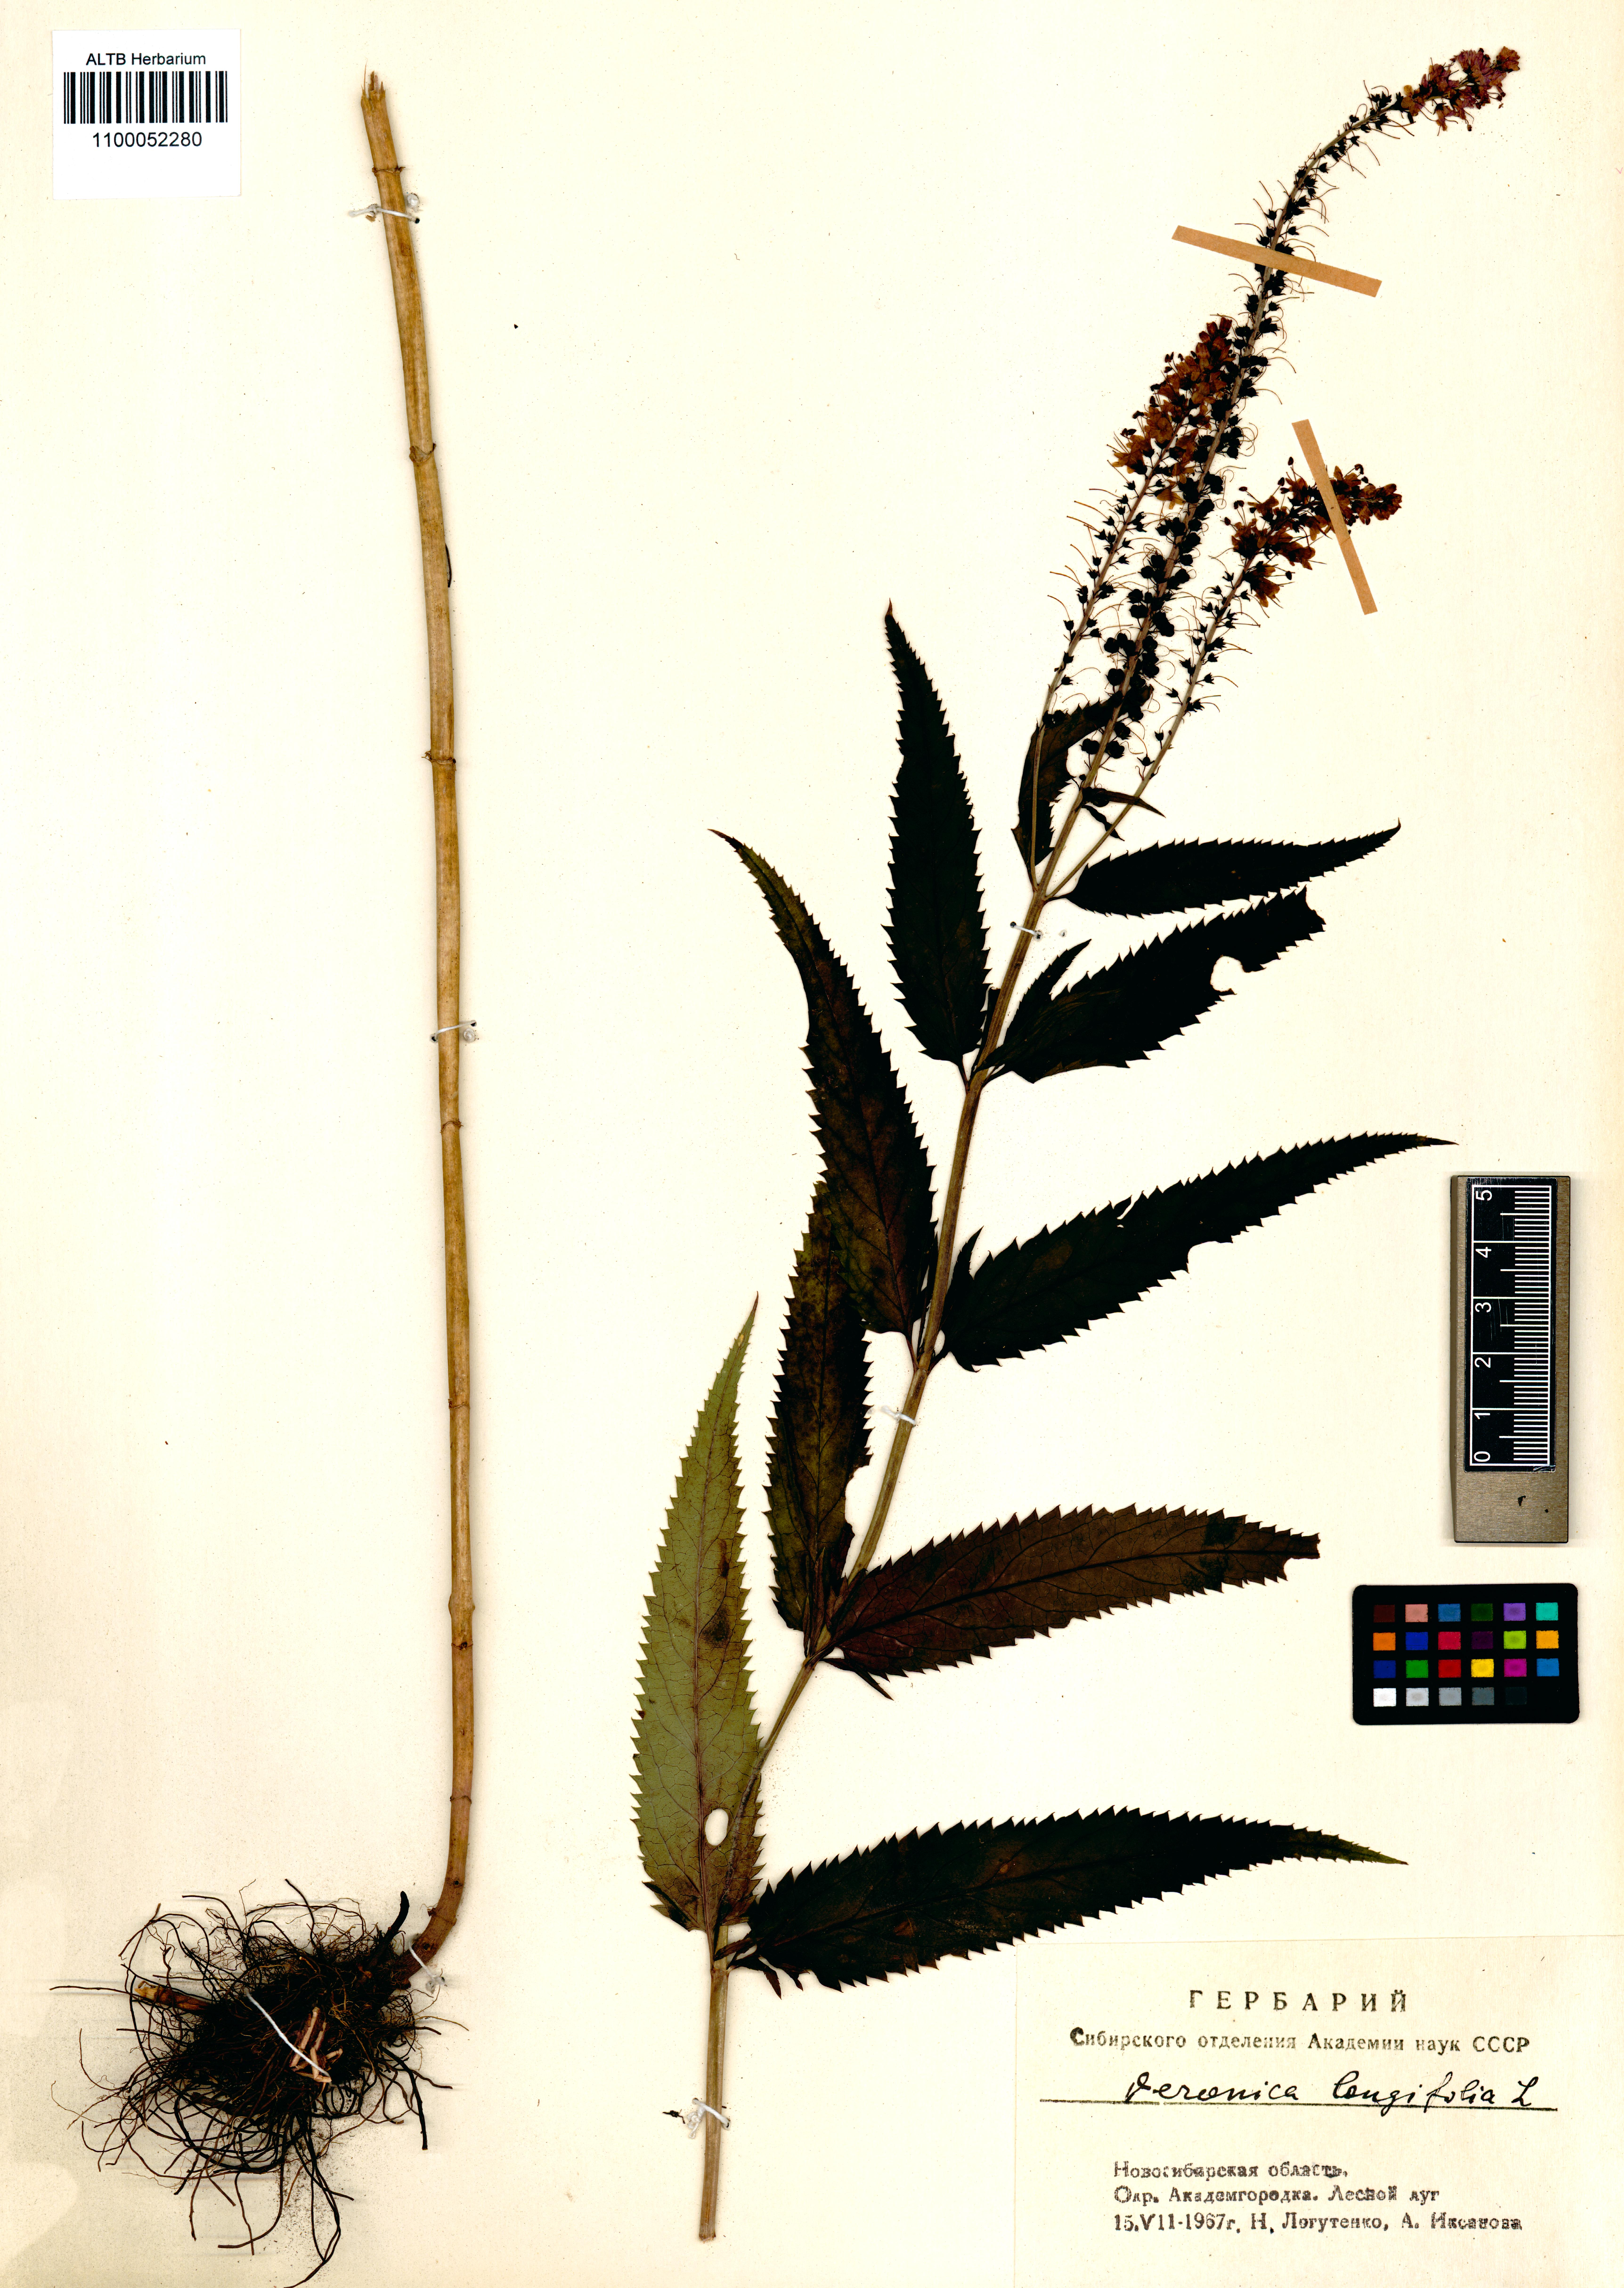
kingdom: Plantae
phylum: Tracheophyta
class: Magnoliopsida
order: Lamiales
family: Plantaginaceae
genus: Veronica
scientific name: Veronica longifolia
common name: Garden speedwell
